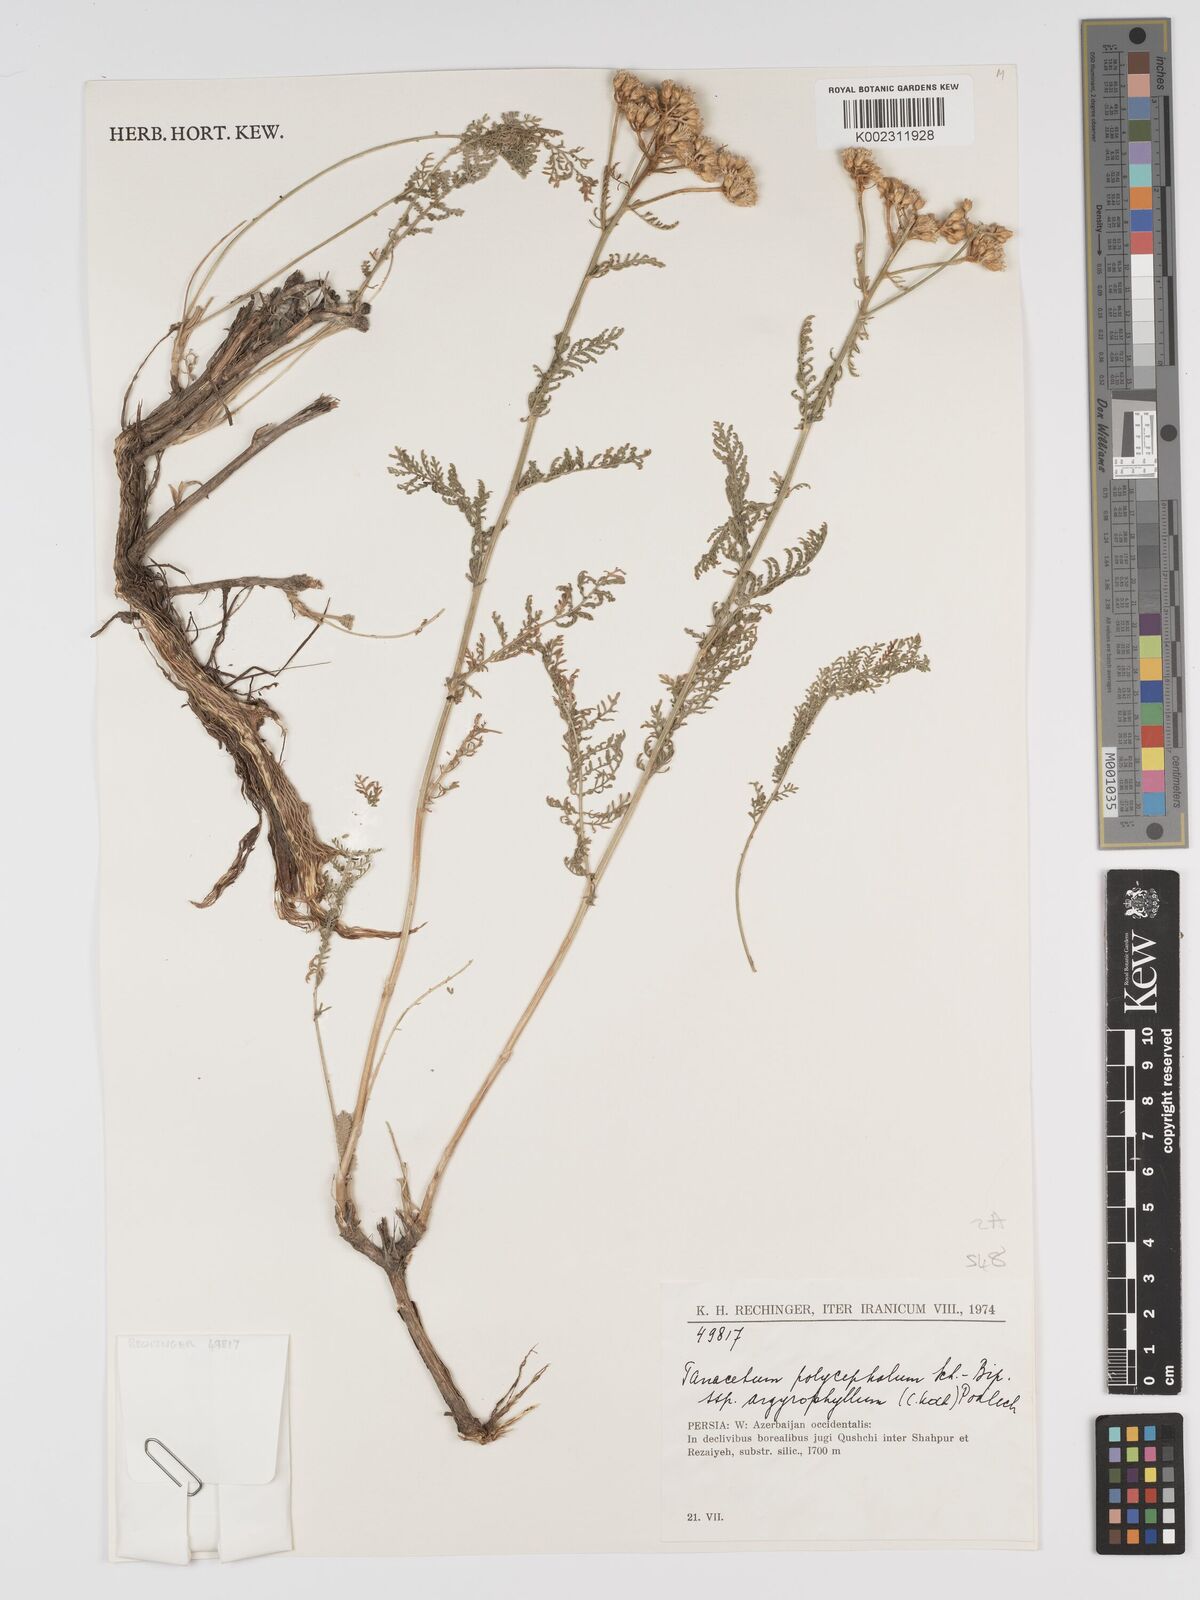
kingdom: Plantae
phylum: Tracheophyta
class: Magnoliopsida
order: Asterales
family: Asteraceae
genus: Tanacetum
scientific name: Tanacetum polycephalum
